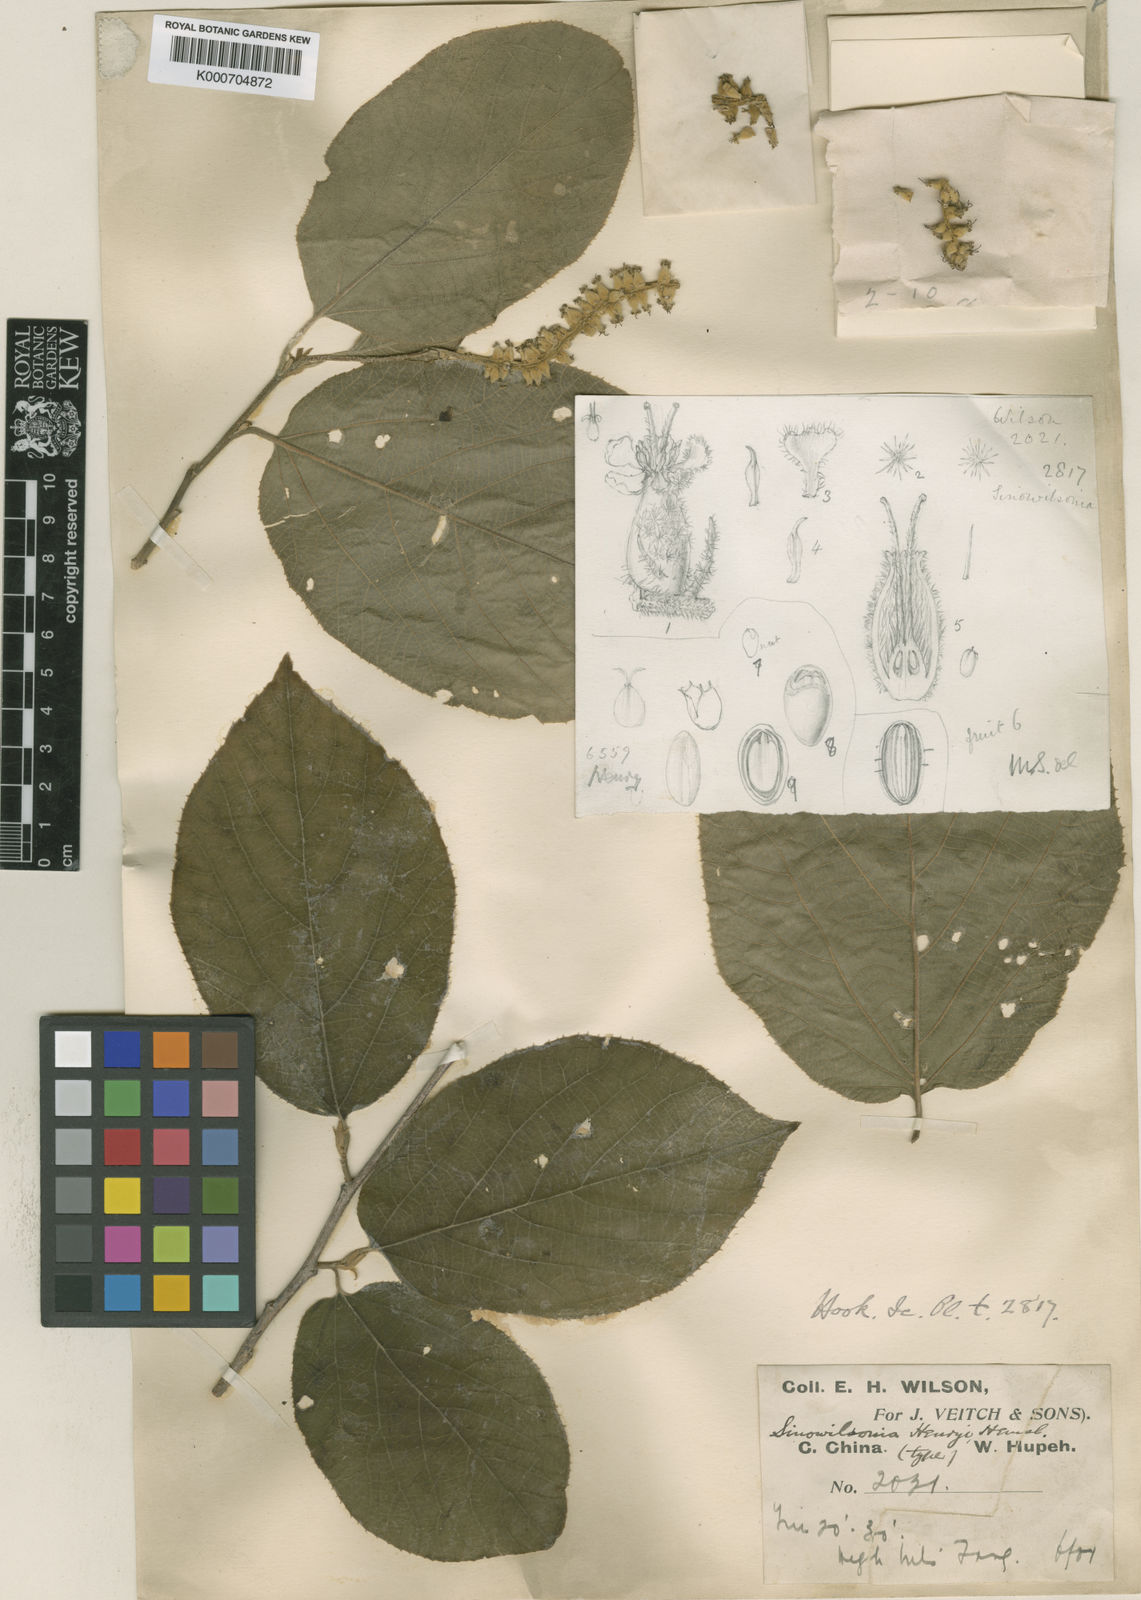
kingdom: Plantae
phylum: Tracheophyta
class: Magnoliopsida
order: Saxifragales
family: Hamamelidaceae
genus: Sinowilsonia
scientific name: Sinowilsonia henryi
